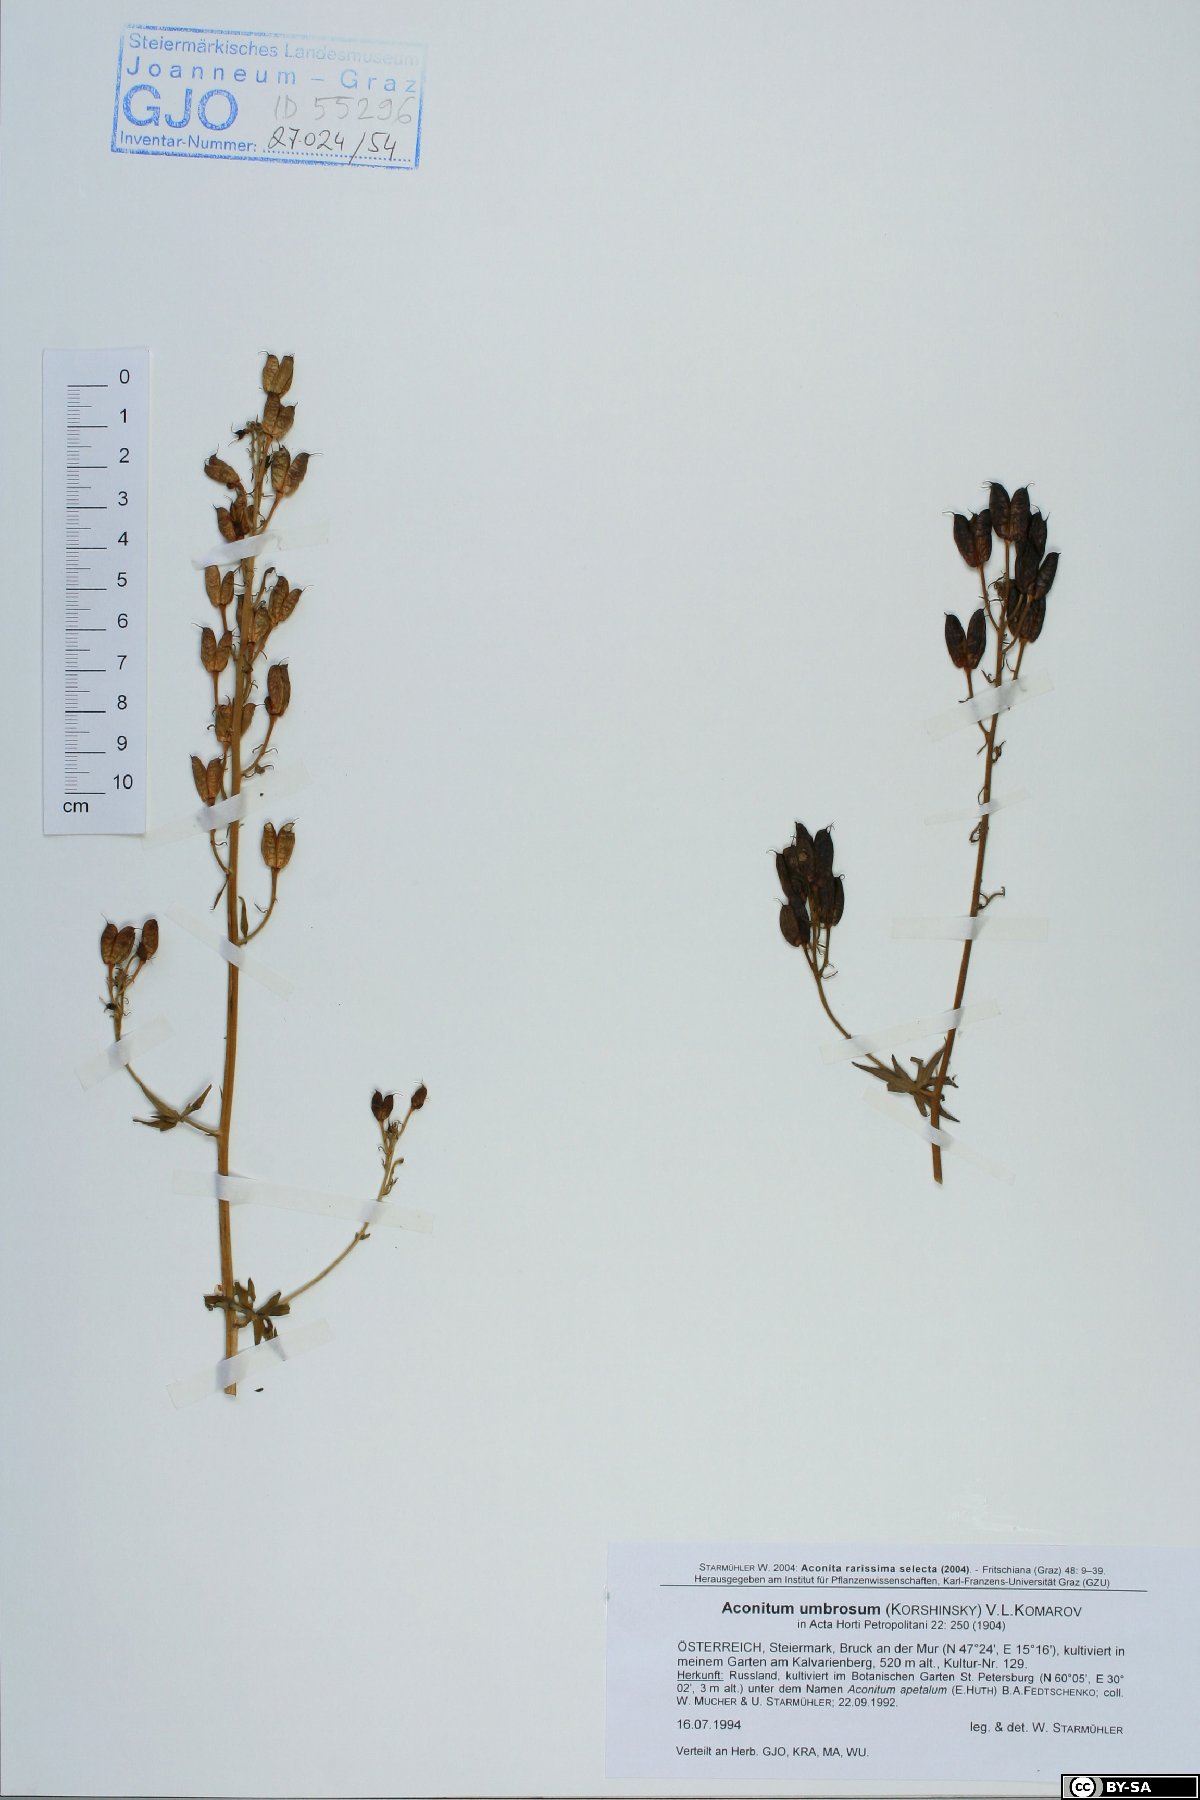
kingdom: Plantae
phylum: Tracheophyta
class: Magnoliopsida
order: Ranunculales
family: Ranunculaceae
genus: Aconitum
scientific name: Aconitum umbrosum
